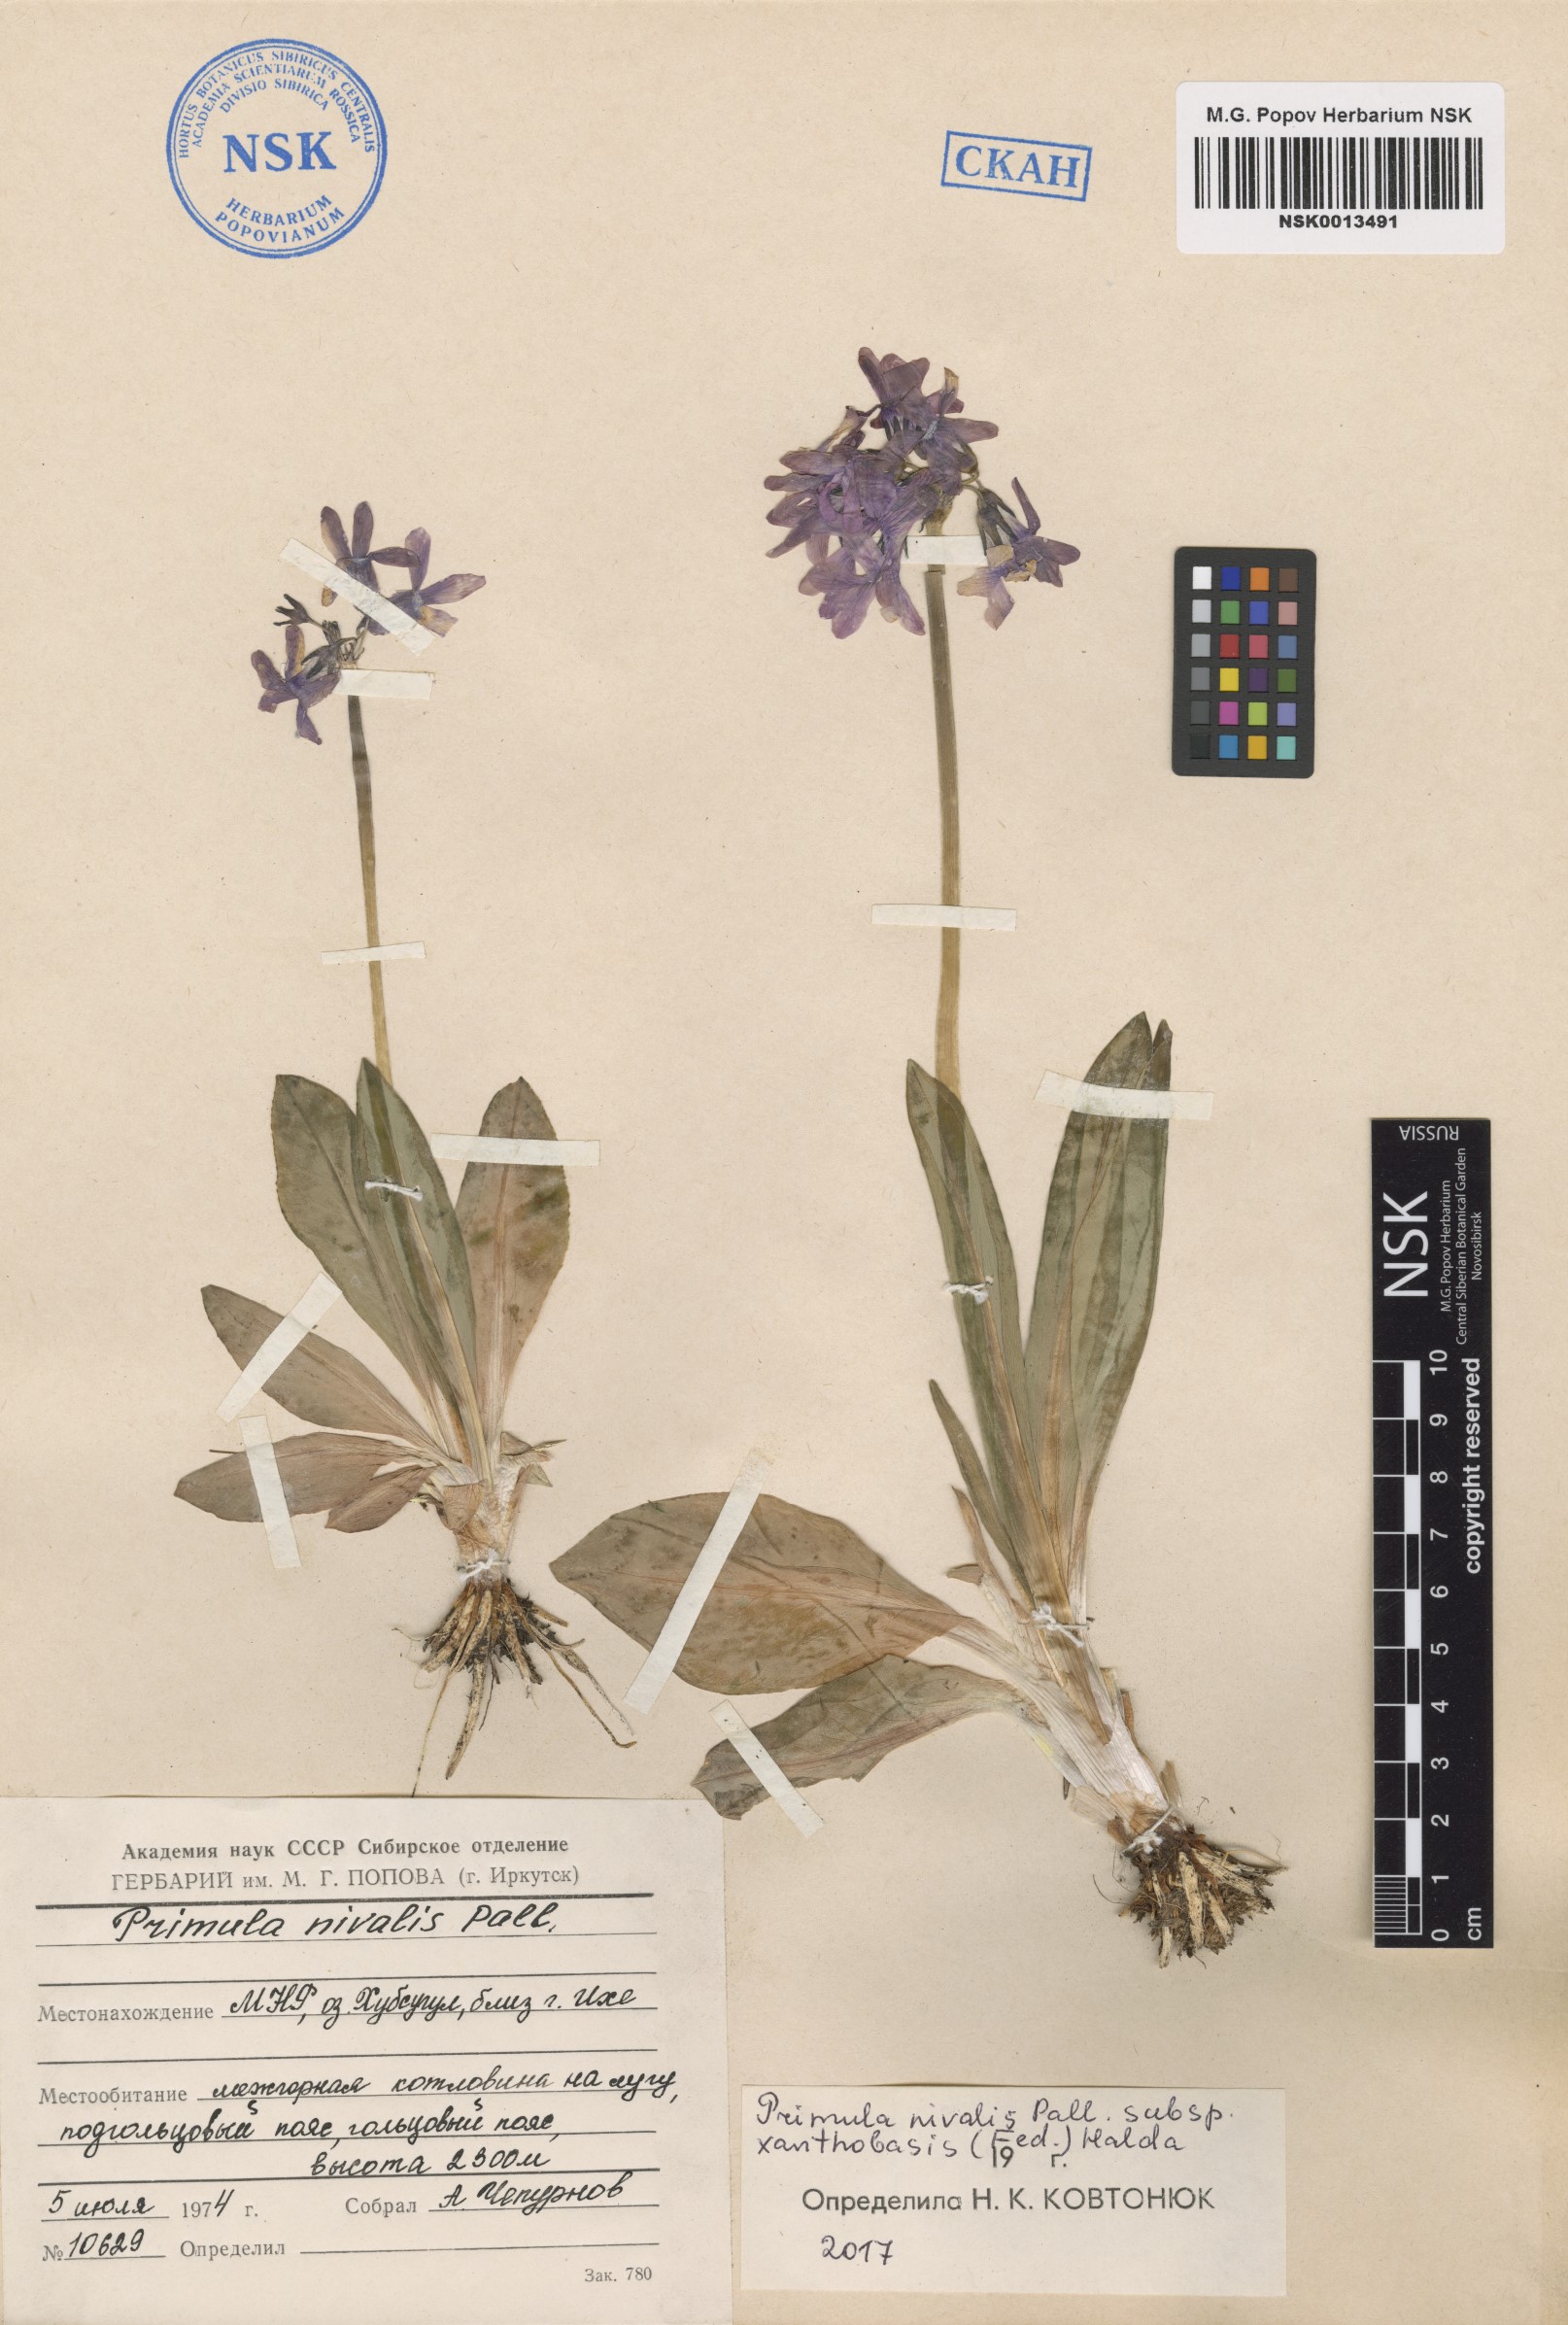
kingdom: Plantae
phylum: Tracheophyta
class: Magnoliopsida
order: Ericales
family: Primulaceae
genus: Primula
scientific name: Primula nivalis
